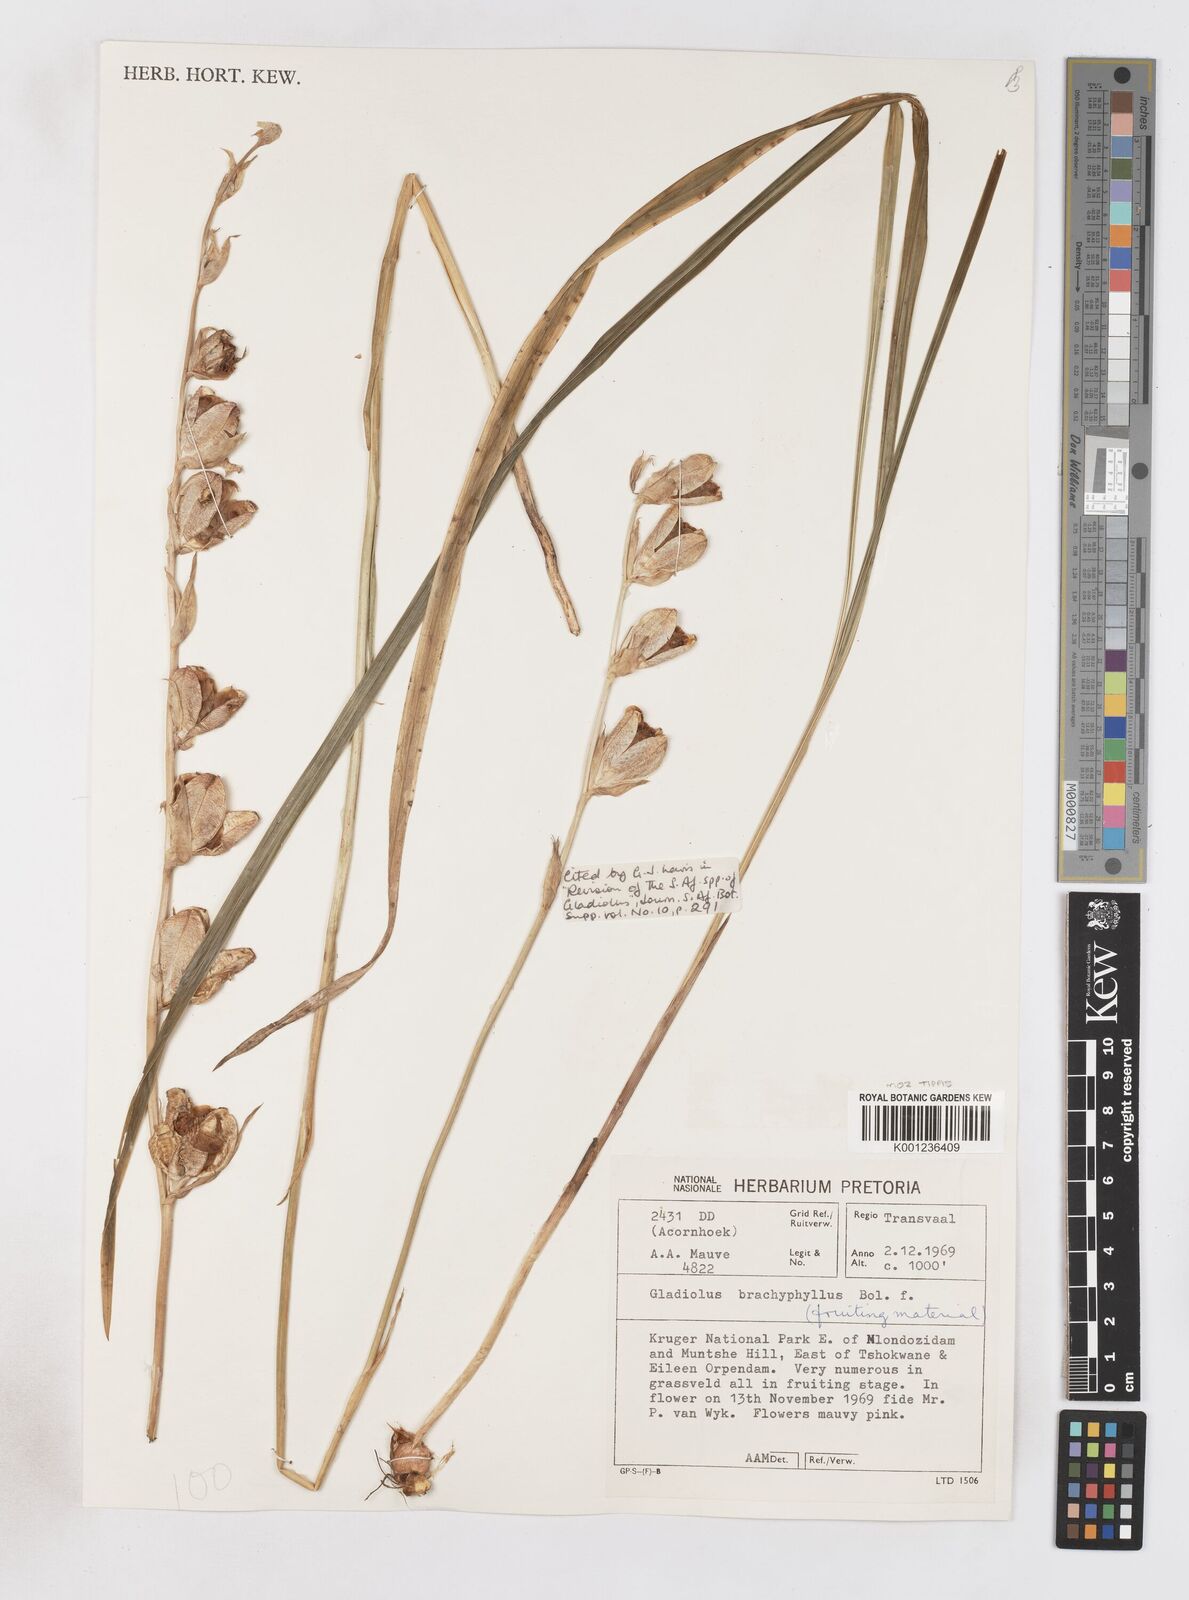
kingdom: Plantae
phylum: Tracheophyta
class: Liliopsida
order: Asparagales
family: Iridaceae
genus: Gladiolus
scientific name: Gladiolus brachyphyllus
